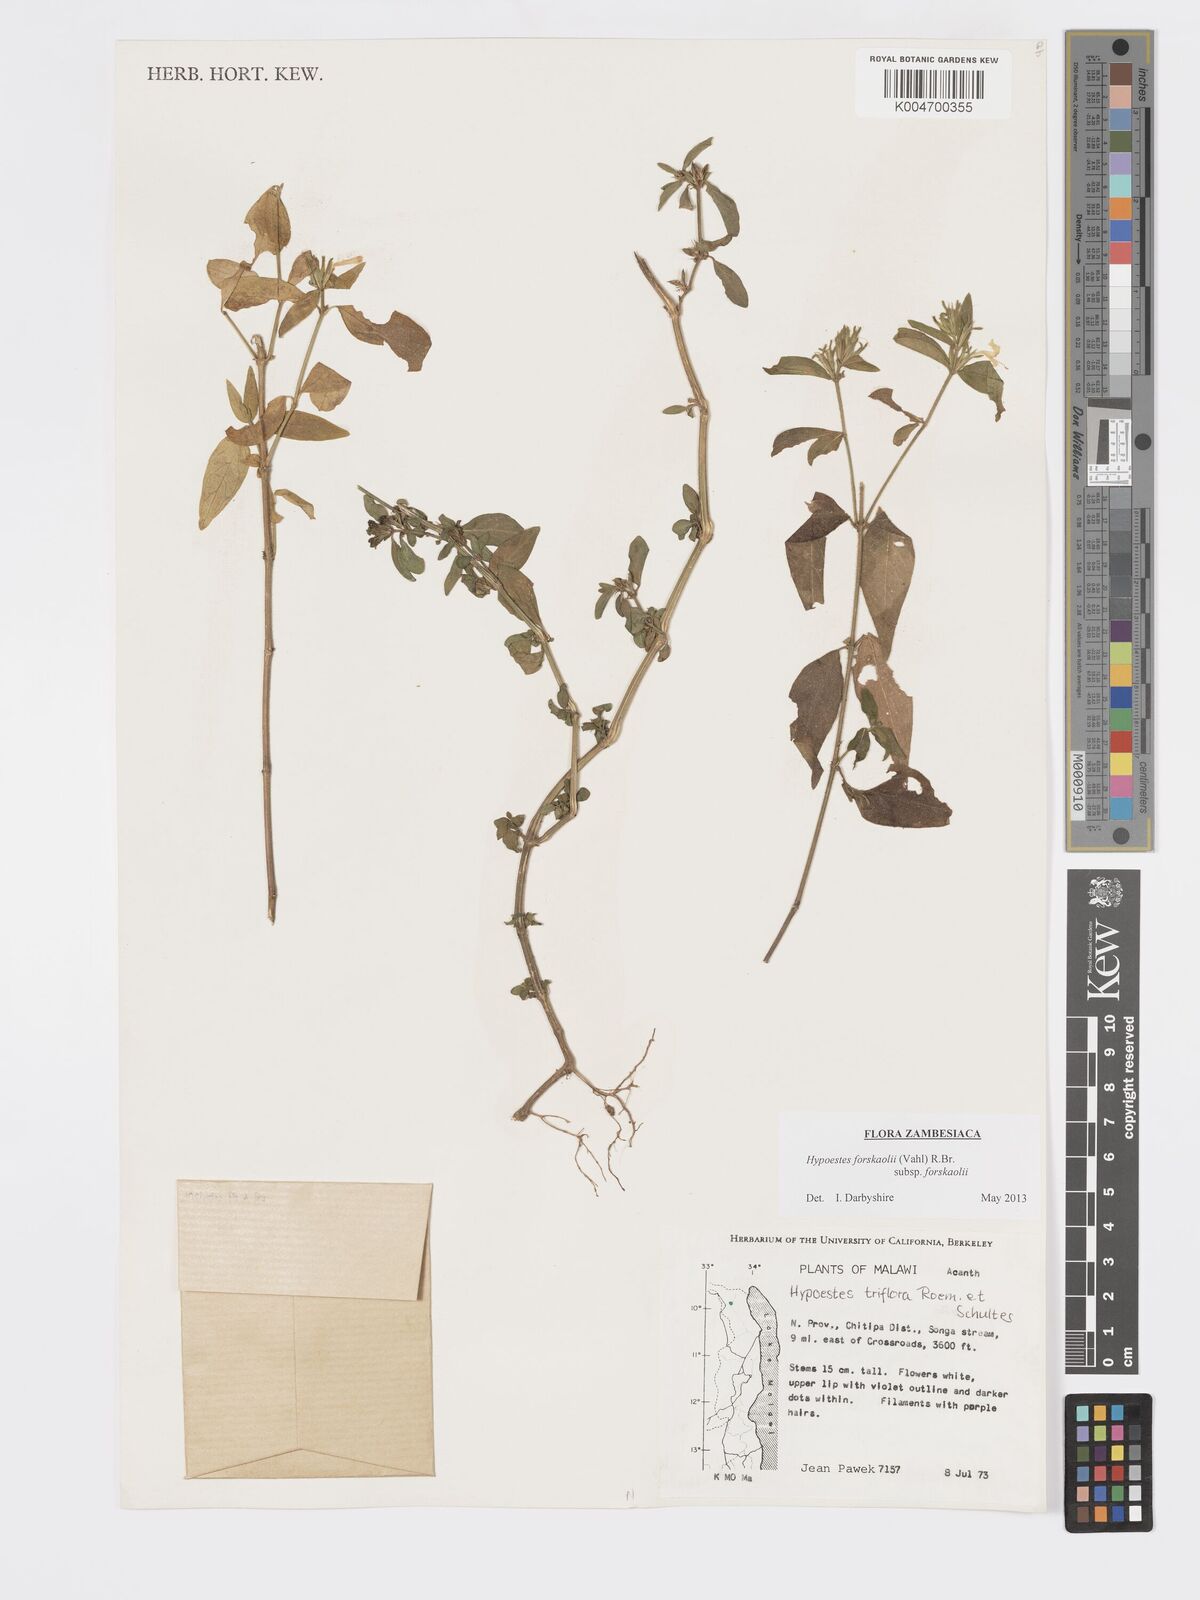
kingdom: Plantae
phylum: Tracheophyta
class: Magnoliopsida
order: Lamiales
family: Acanthaceae
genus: Hypoestes
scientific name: Hypoestes forskaolii
